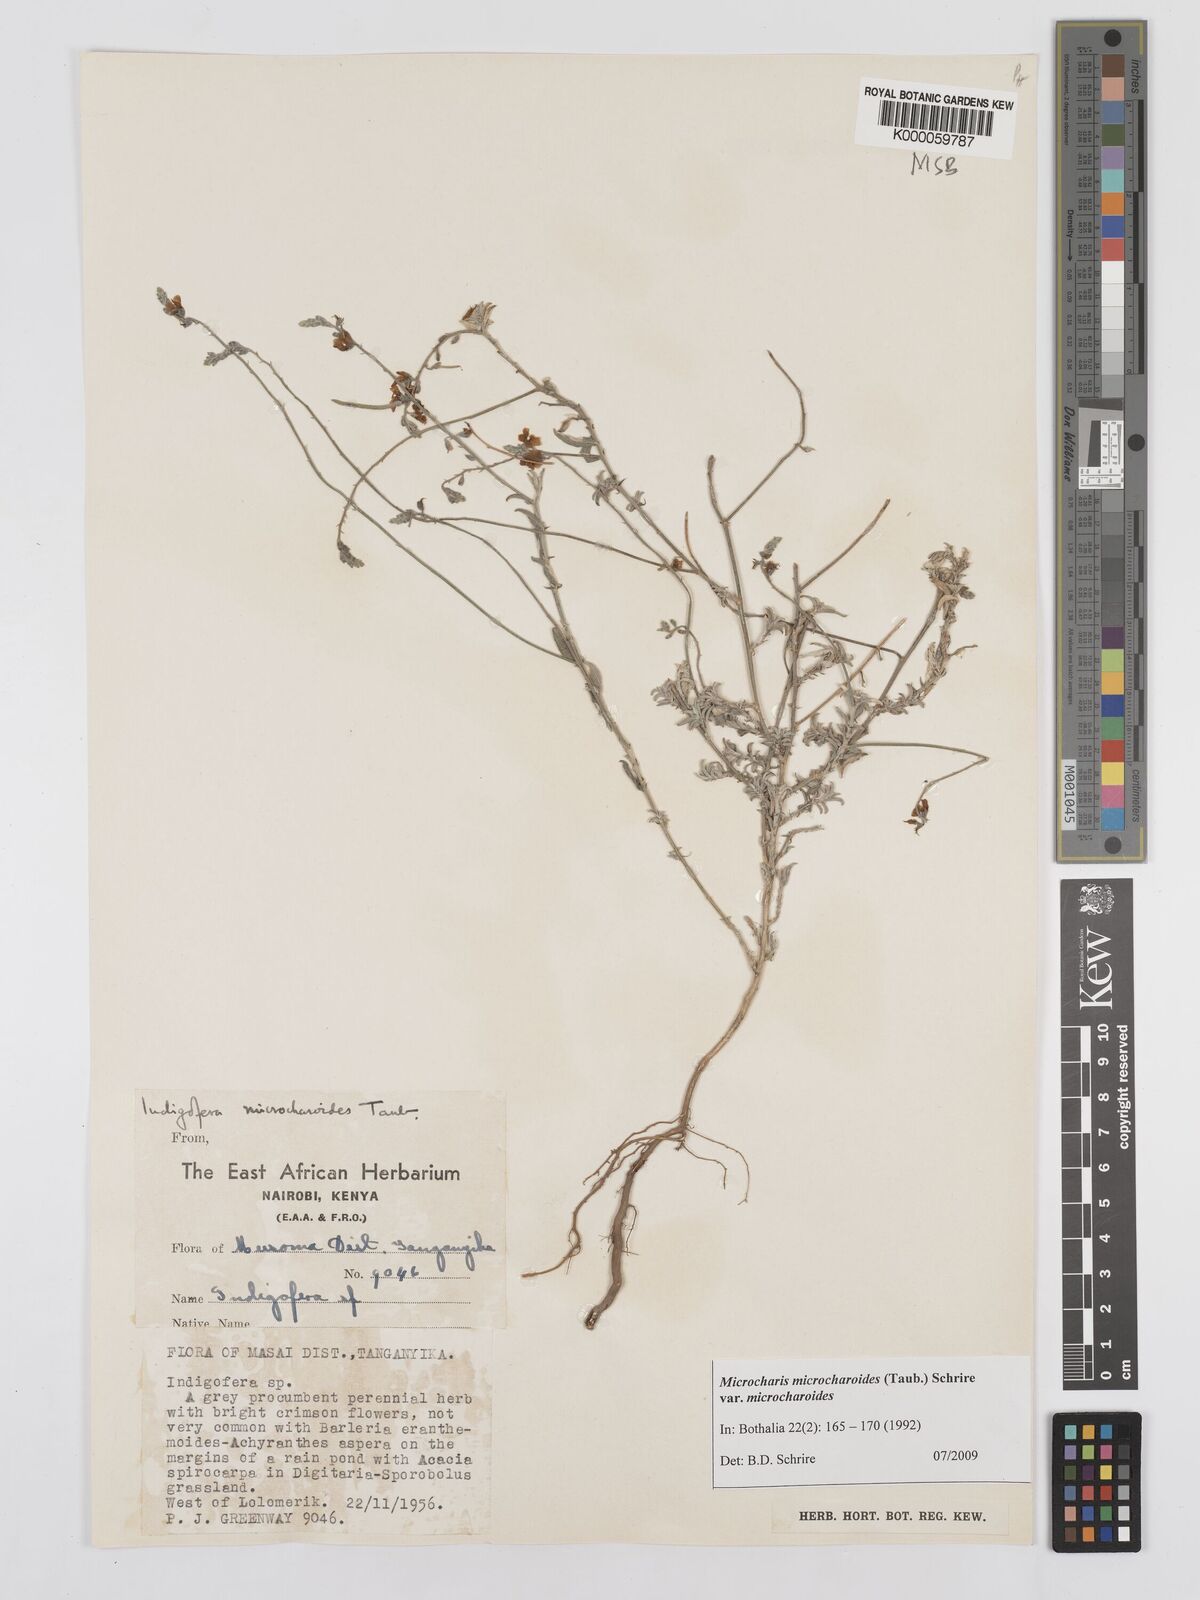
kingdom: Plantae
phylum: Tracheophyta
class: Magnoliopsida
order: Fabales
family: Fabaceae
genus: Microcharis
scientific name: Microcharis microcharoides
